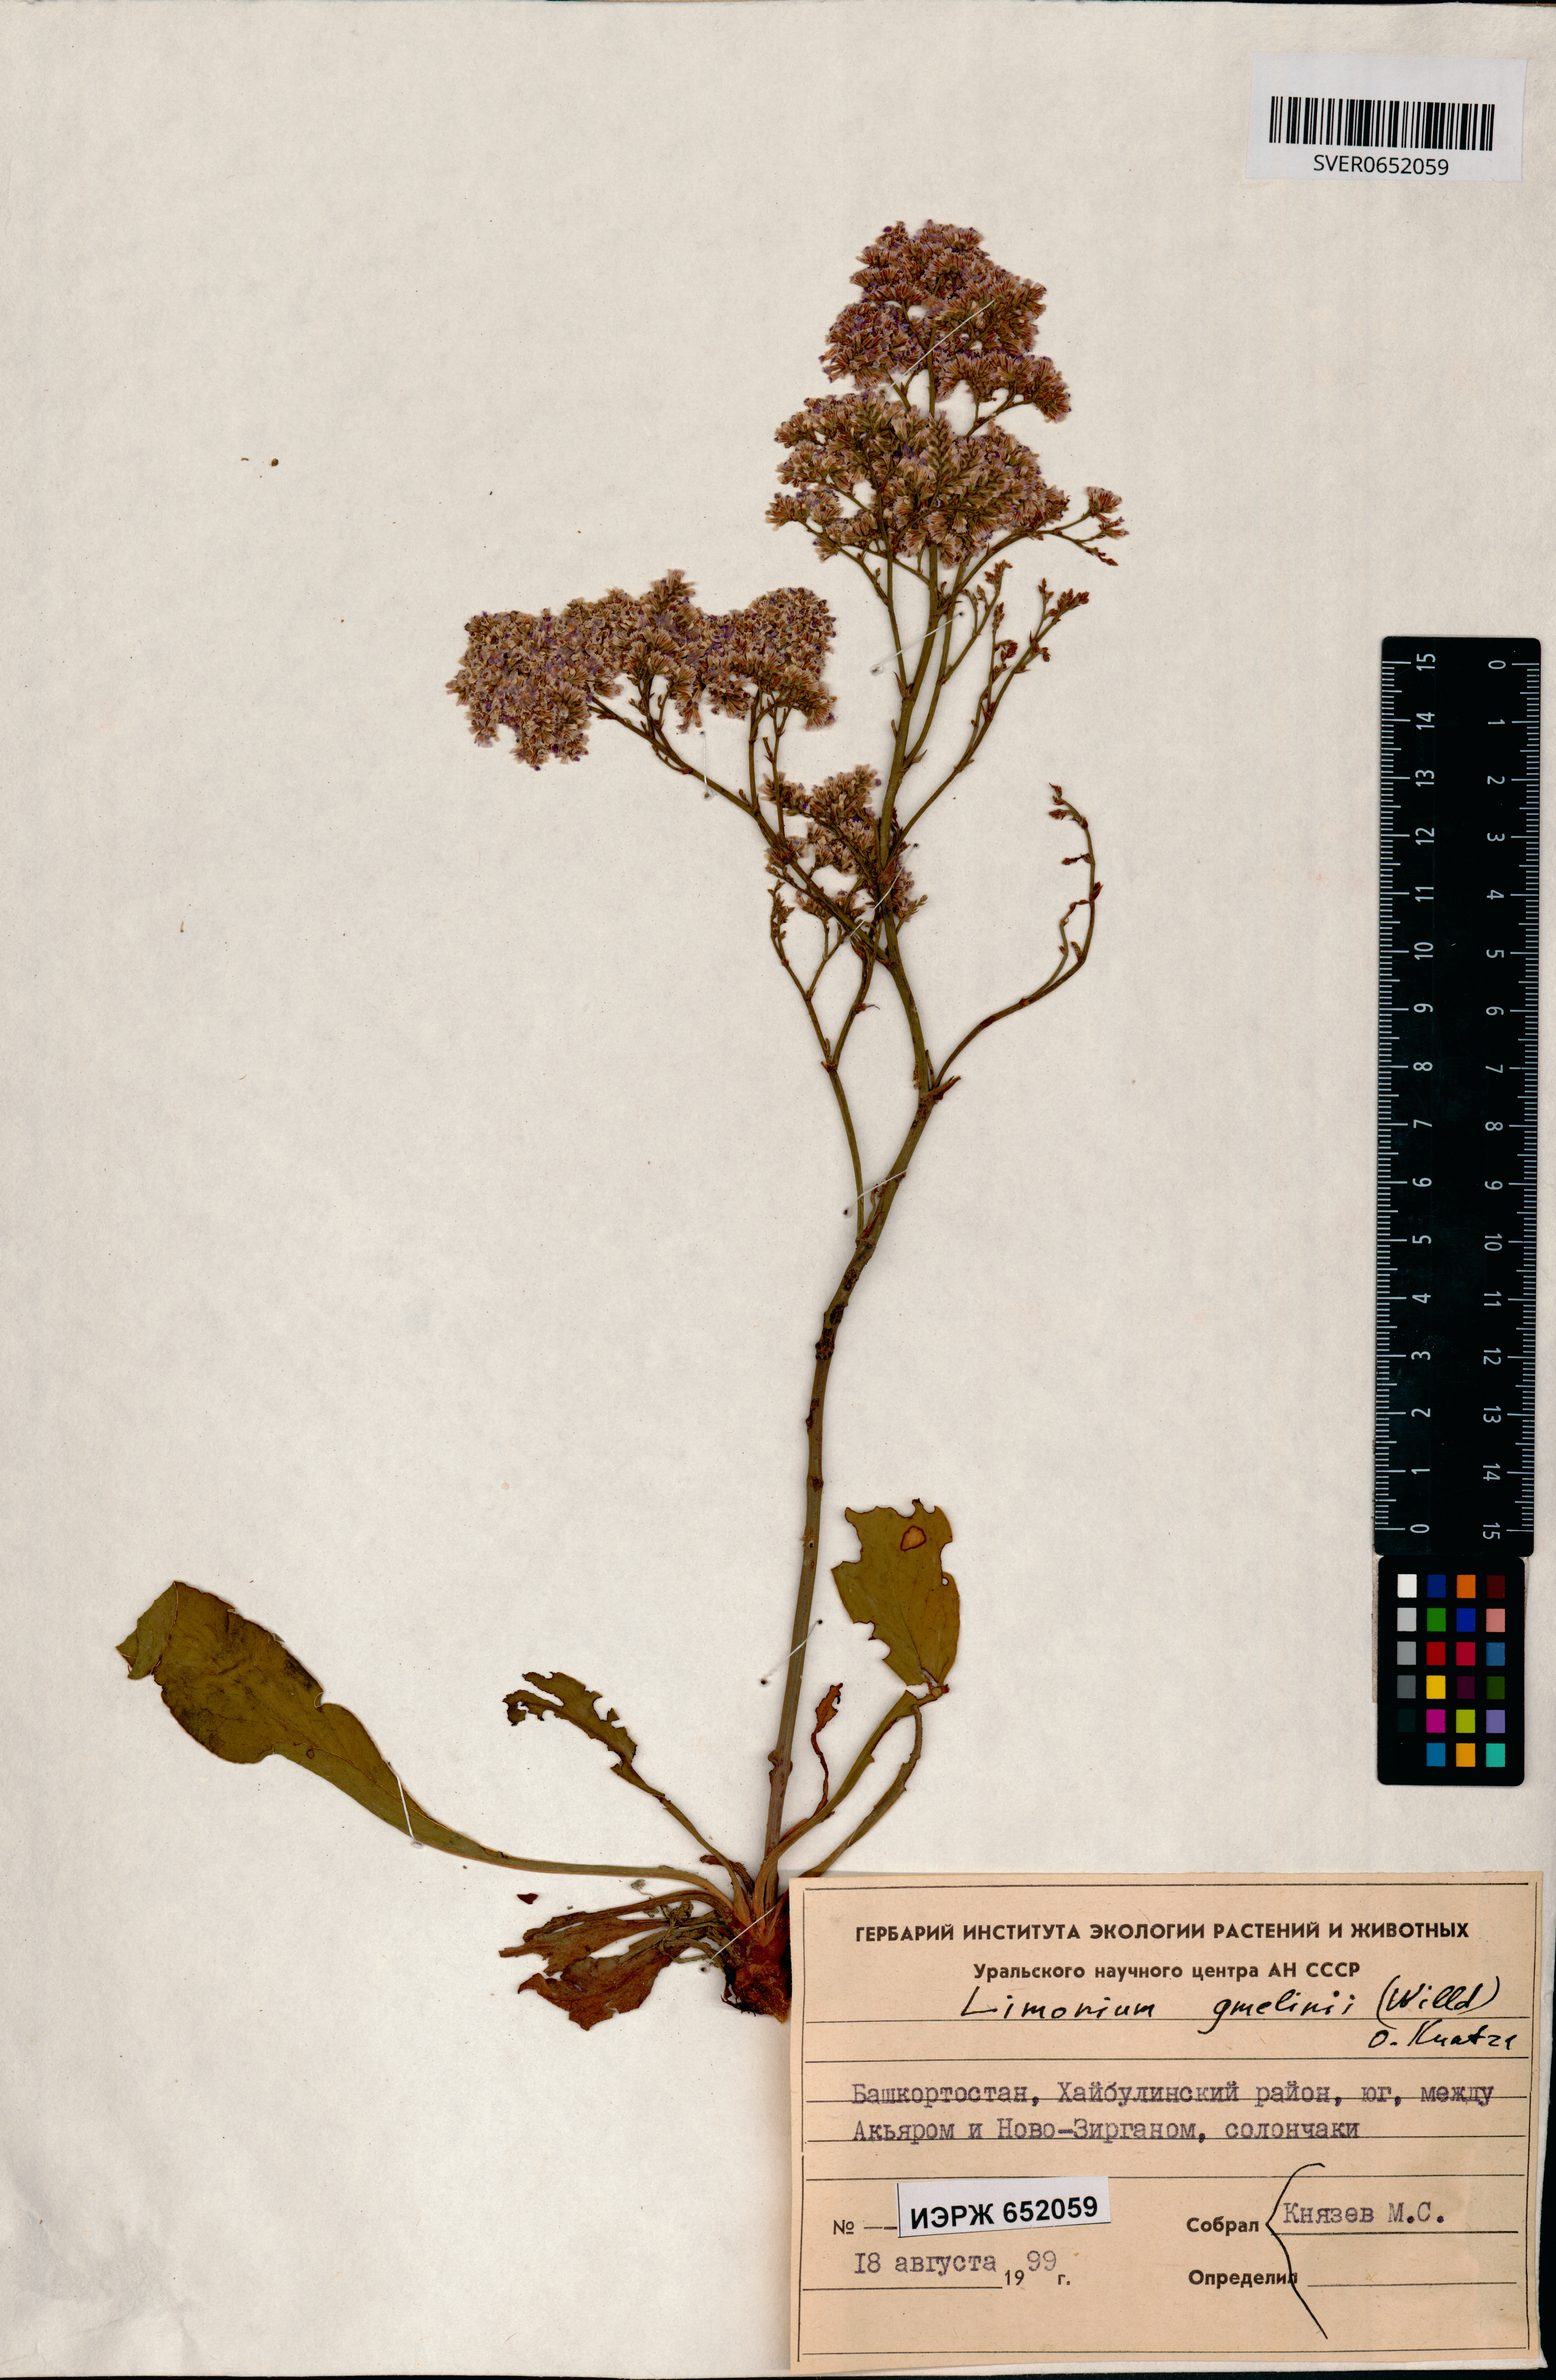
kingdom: Plantae
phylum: Tracheophyta
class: Magnoliopsida
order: Caryophyllales
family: Plumbaginaceae
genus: Limonium
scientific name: Limonium gmelini
